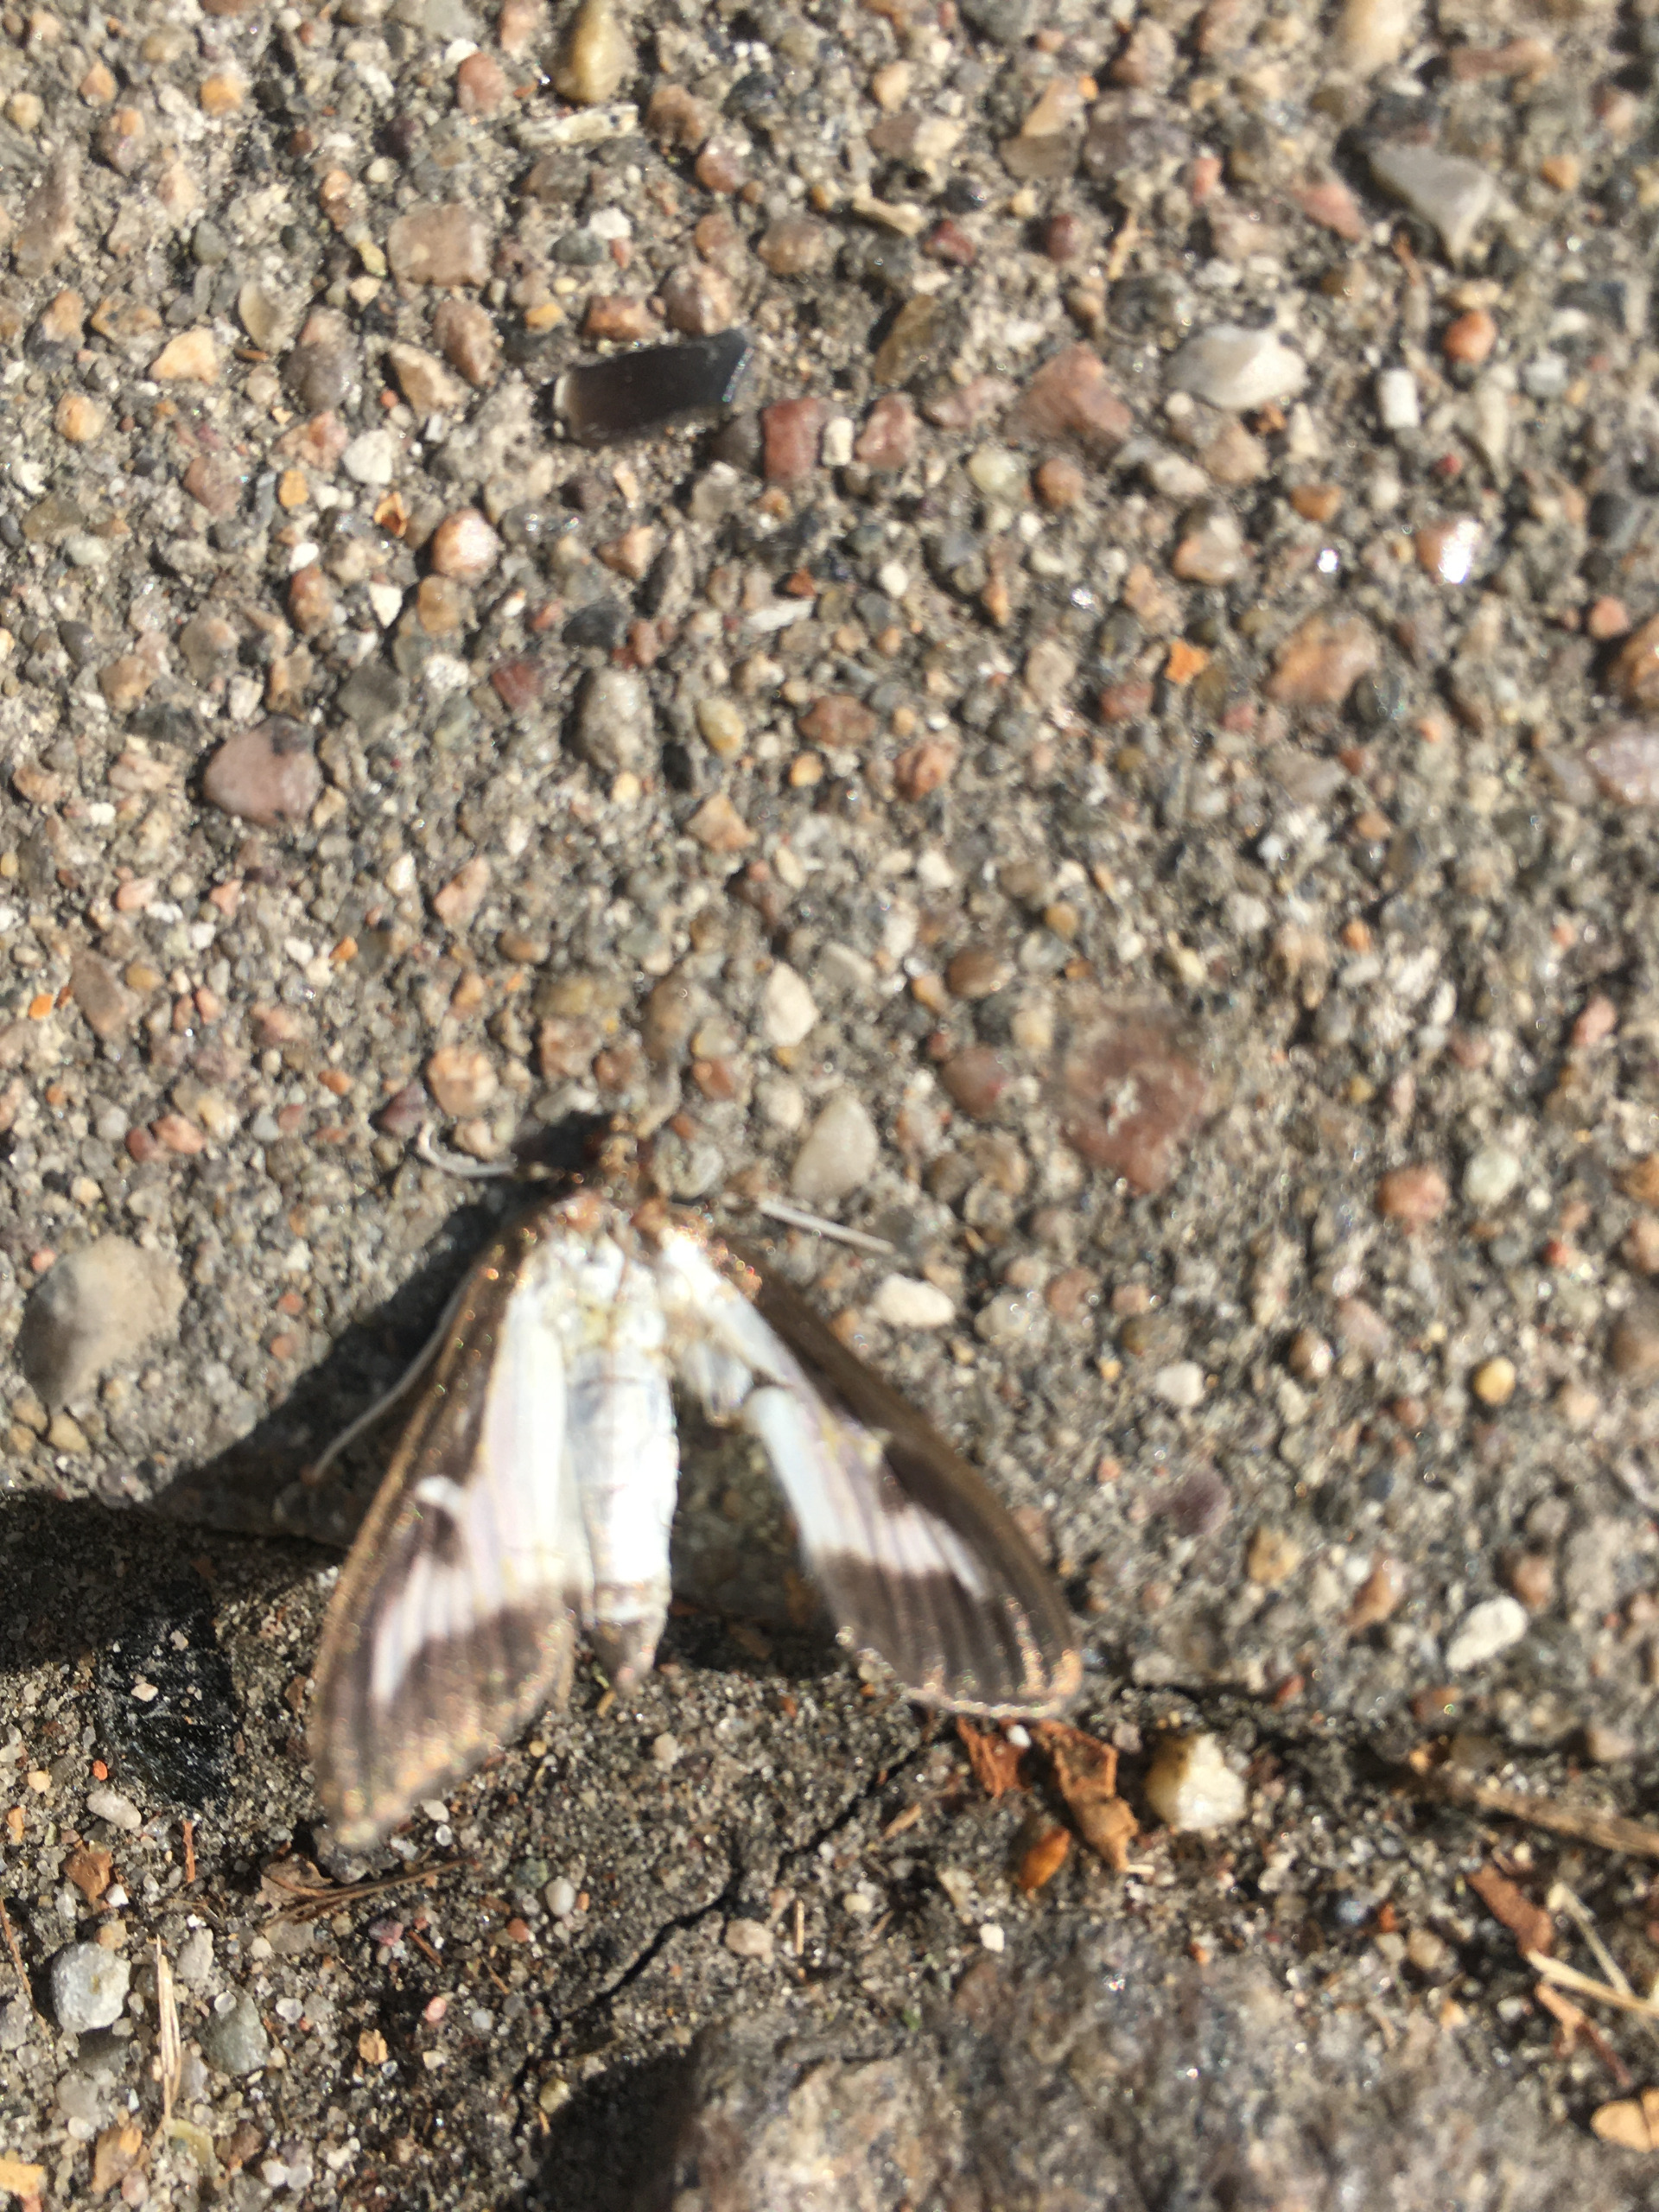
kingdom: Animalia
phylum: Arthropoda
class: Insecta
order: Lepidoptera
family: Crambidae
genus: Cydalima
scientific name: Cydalima perspectalis
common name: Buksbomhalvmøl
